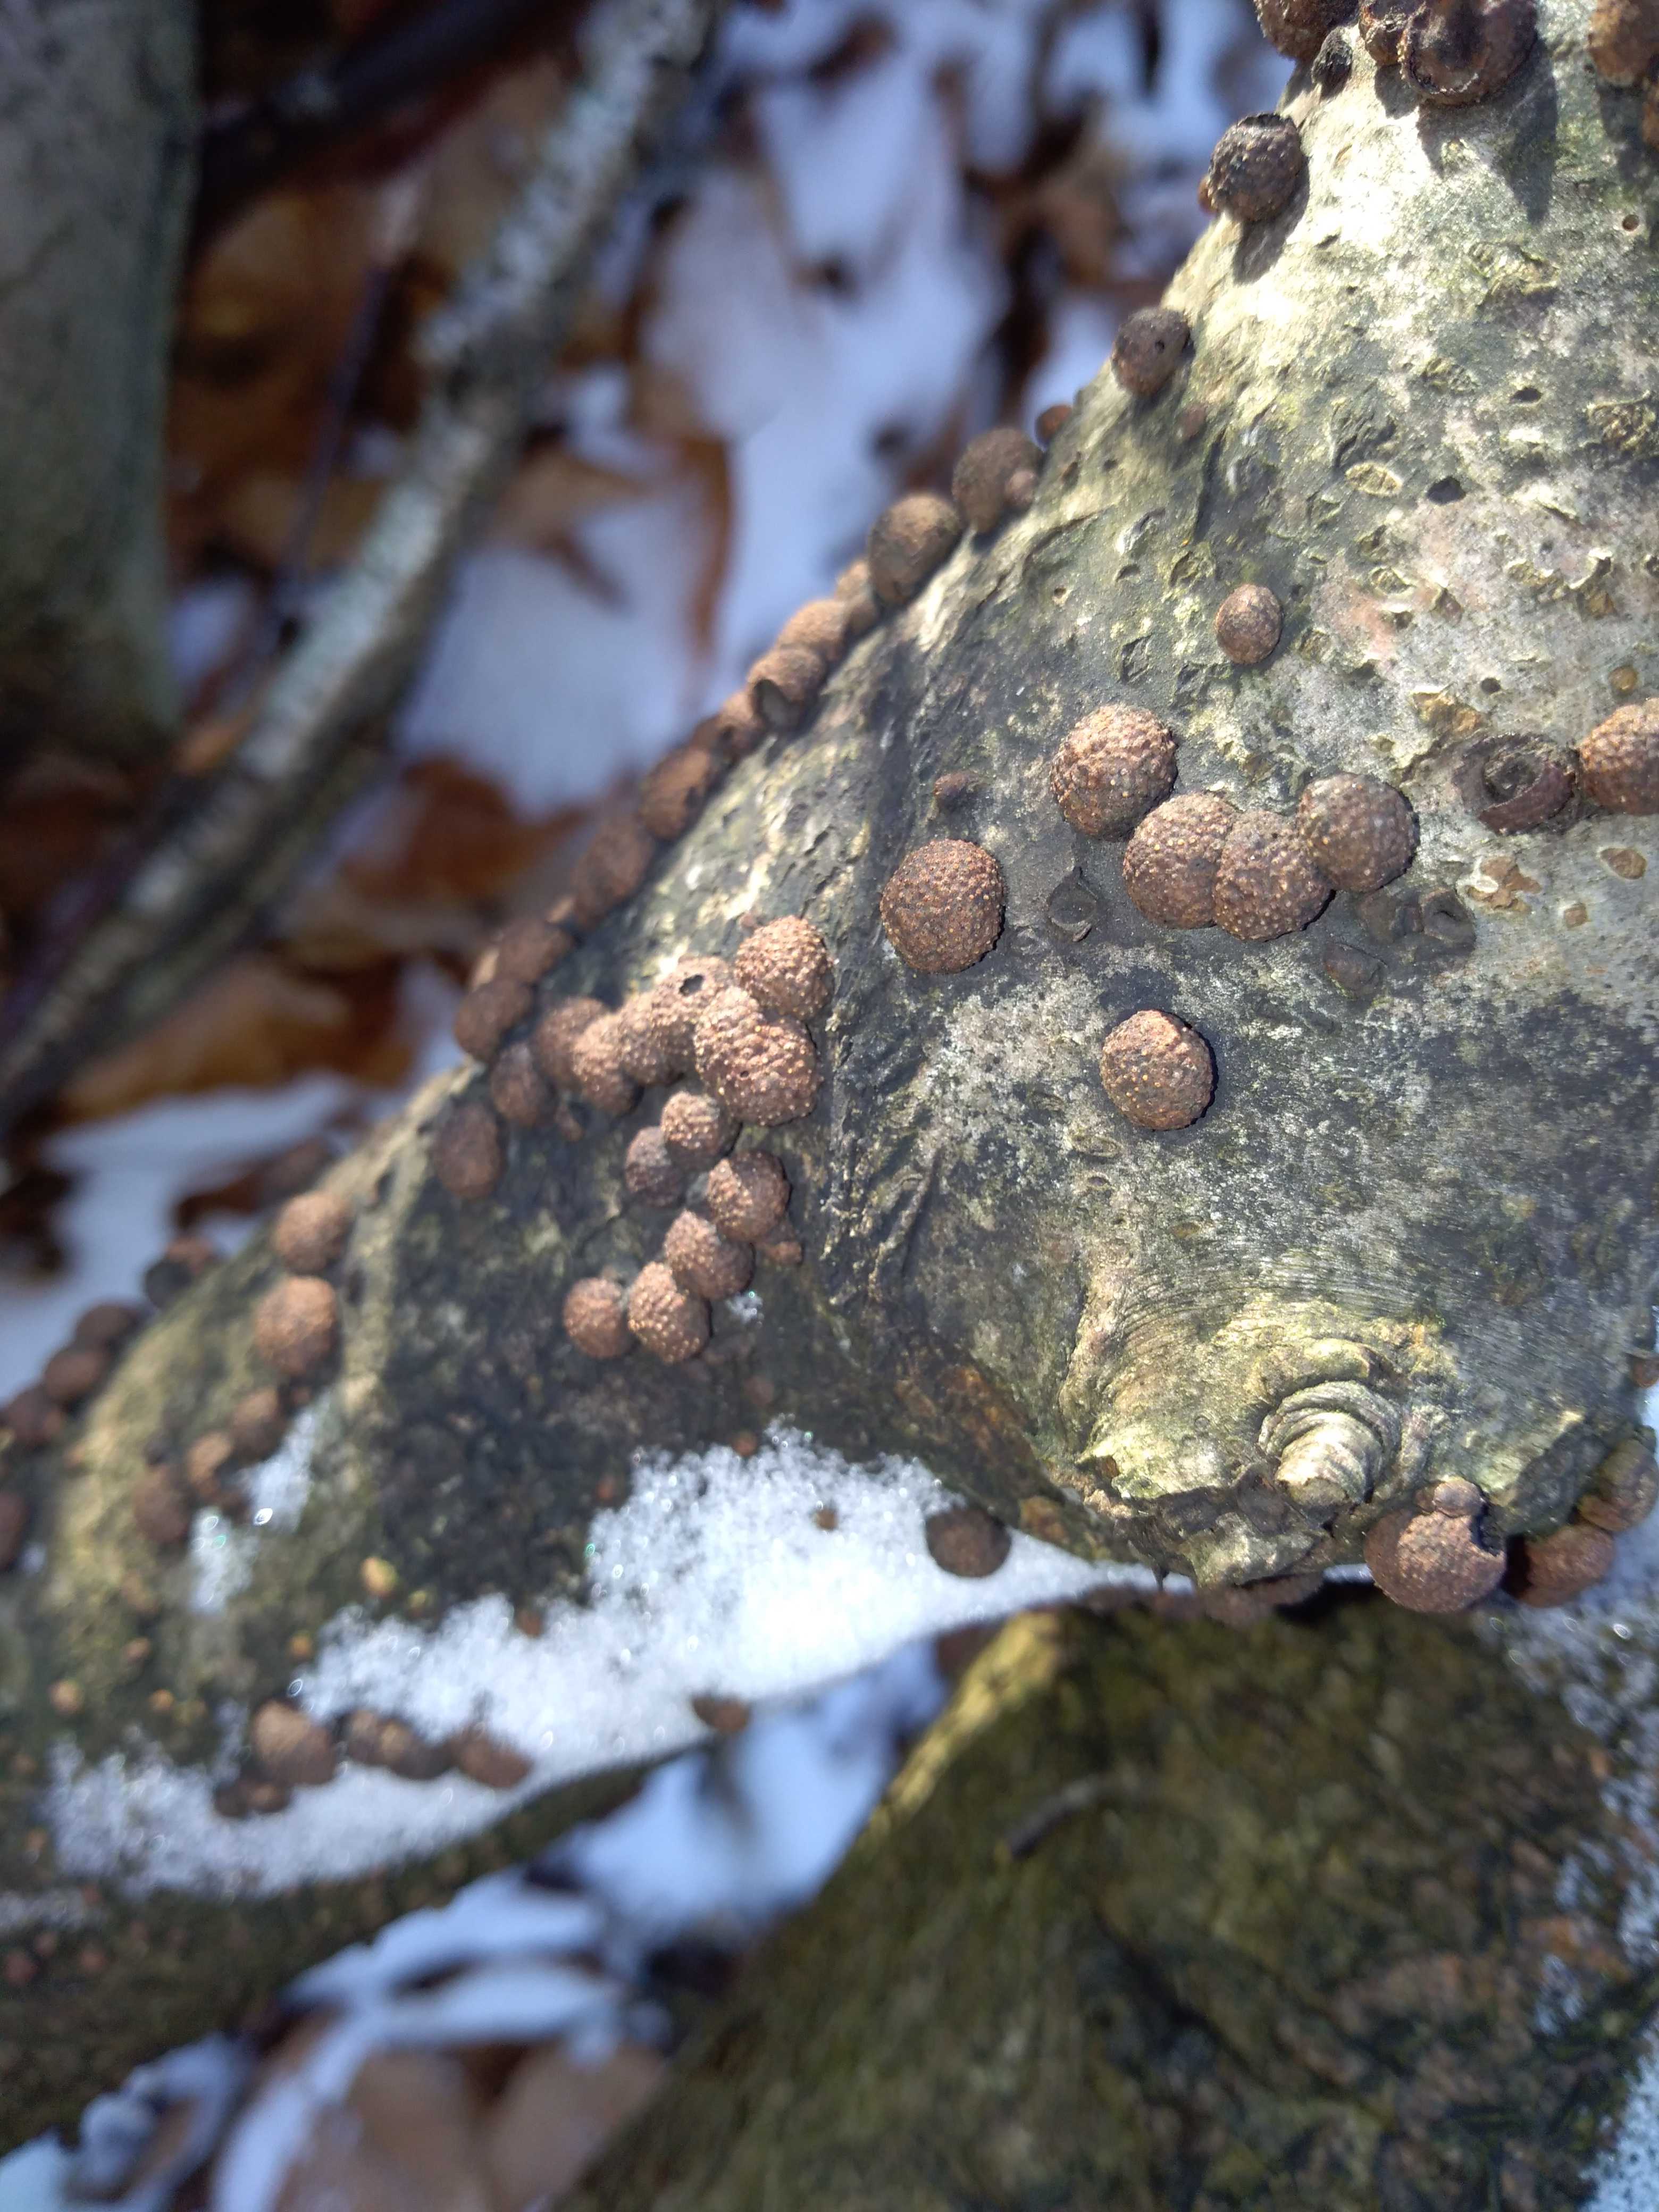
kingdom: Fungi
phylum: Ascomycota
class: Sordariomycetes
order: Xylariales
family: Hypoxylaceae
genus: Hypoxylon
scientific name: Hypoxylon fragiforme
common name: kuljordbær
